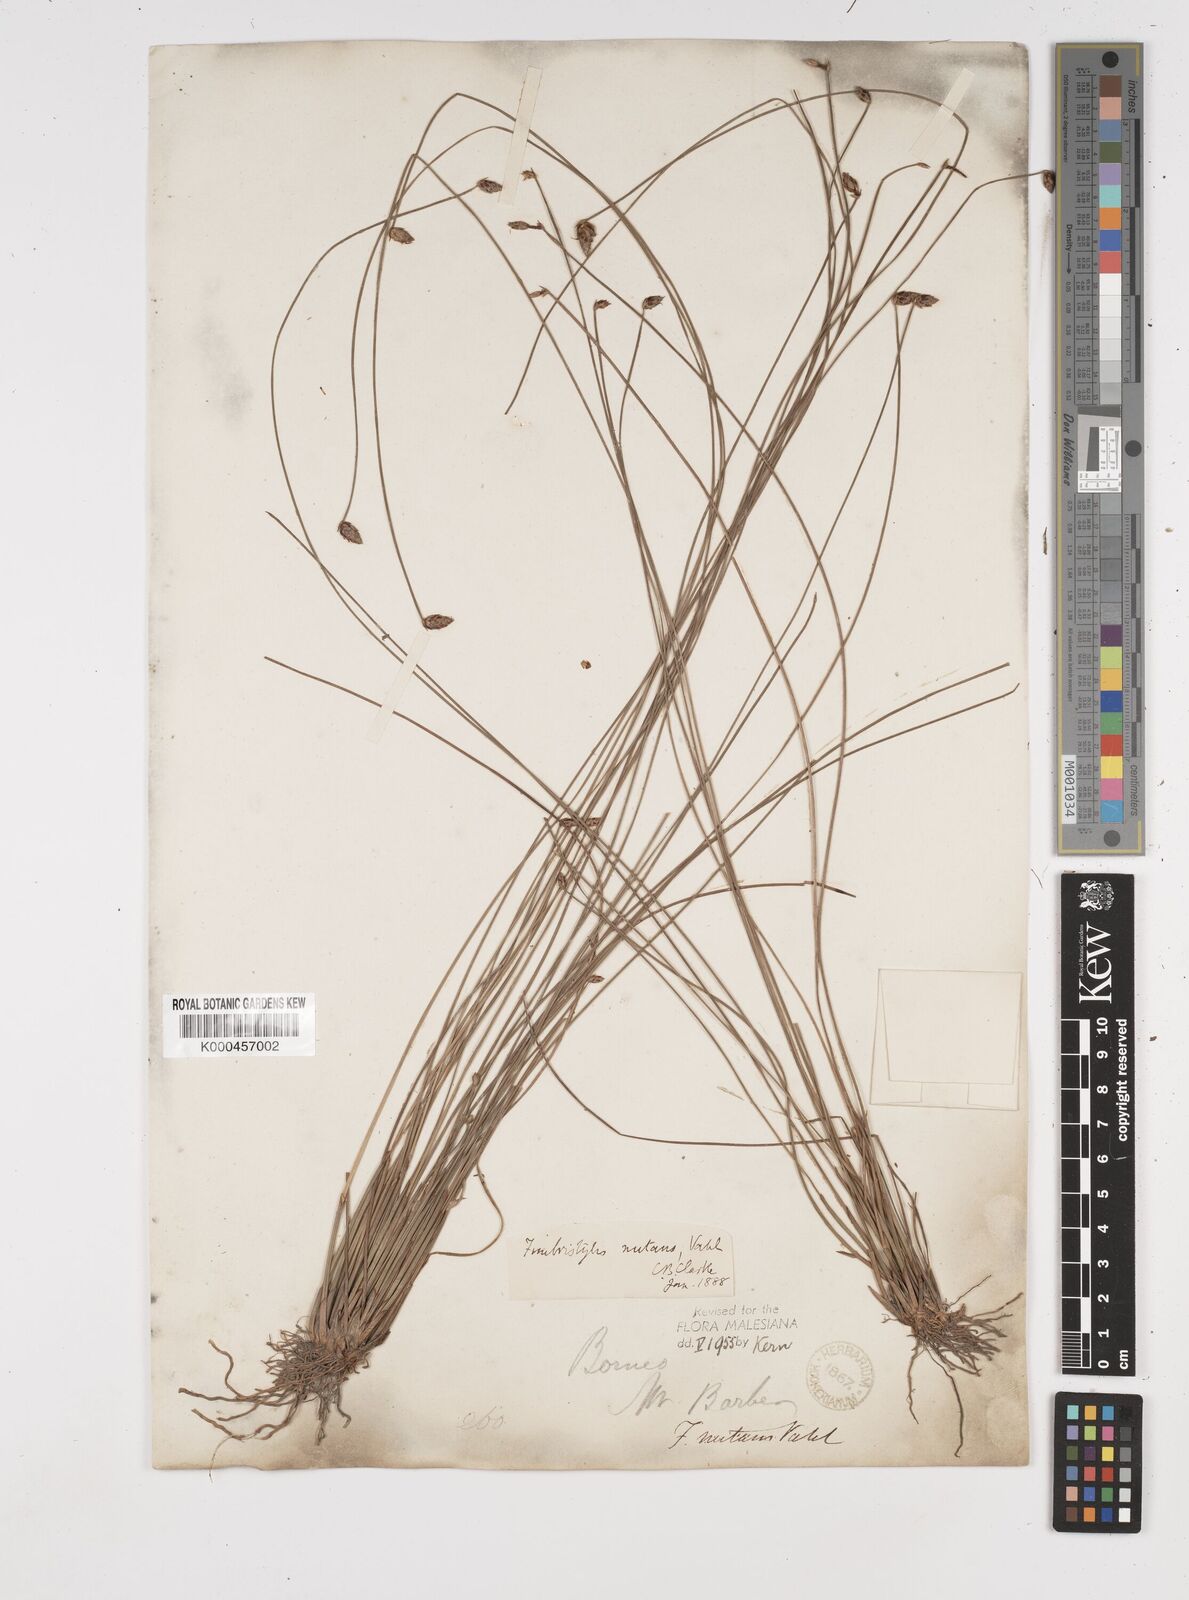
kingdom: Plantae
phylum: Tracheophyta
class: Liliopsida
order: Poales
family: Cyperaceae
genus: Fimbristylis
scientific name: Fimbristylis nutans
